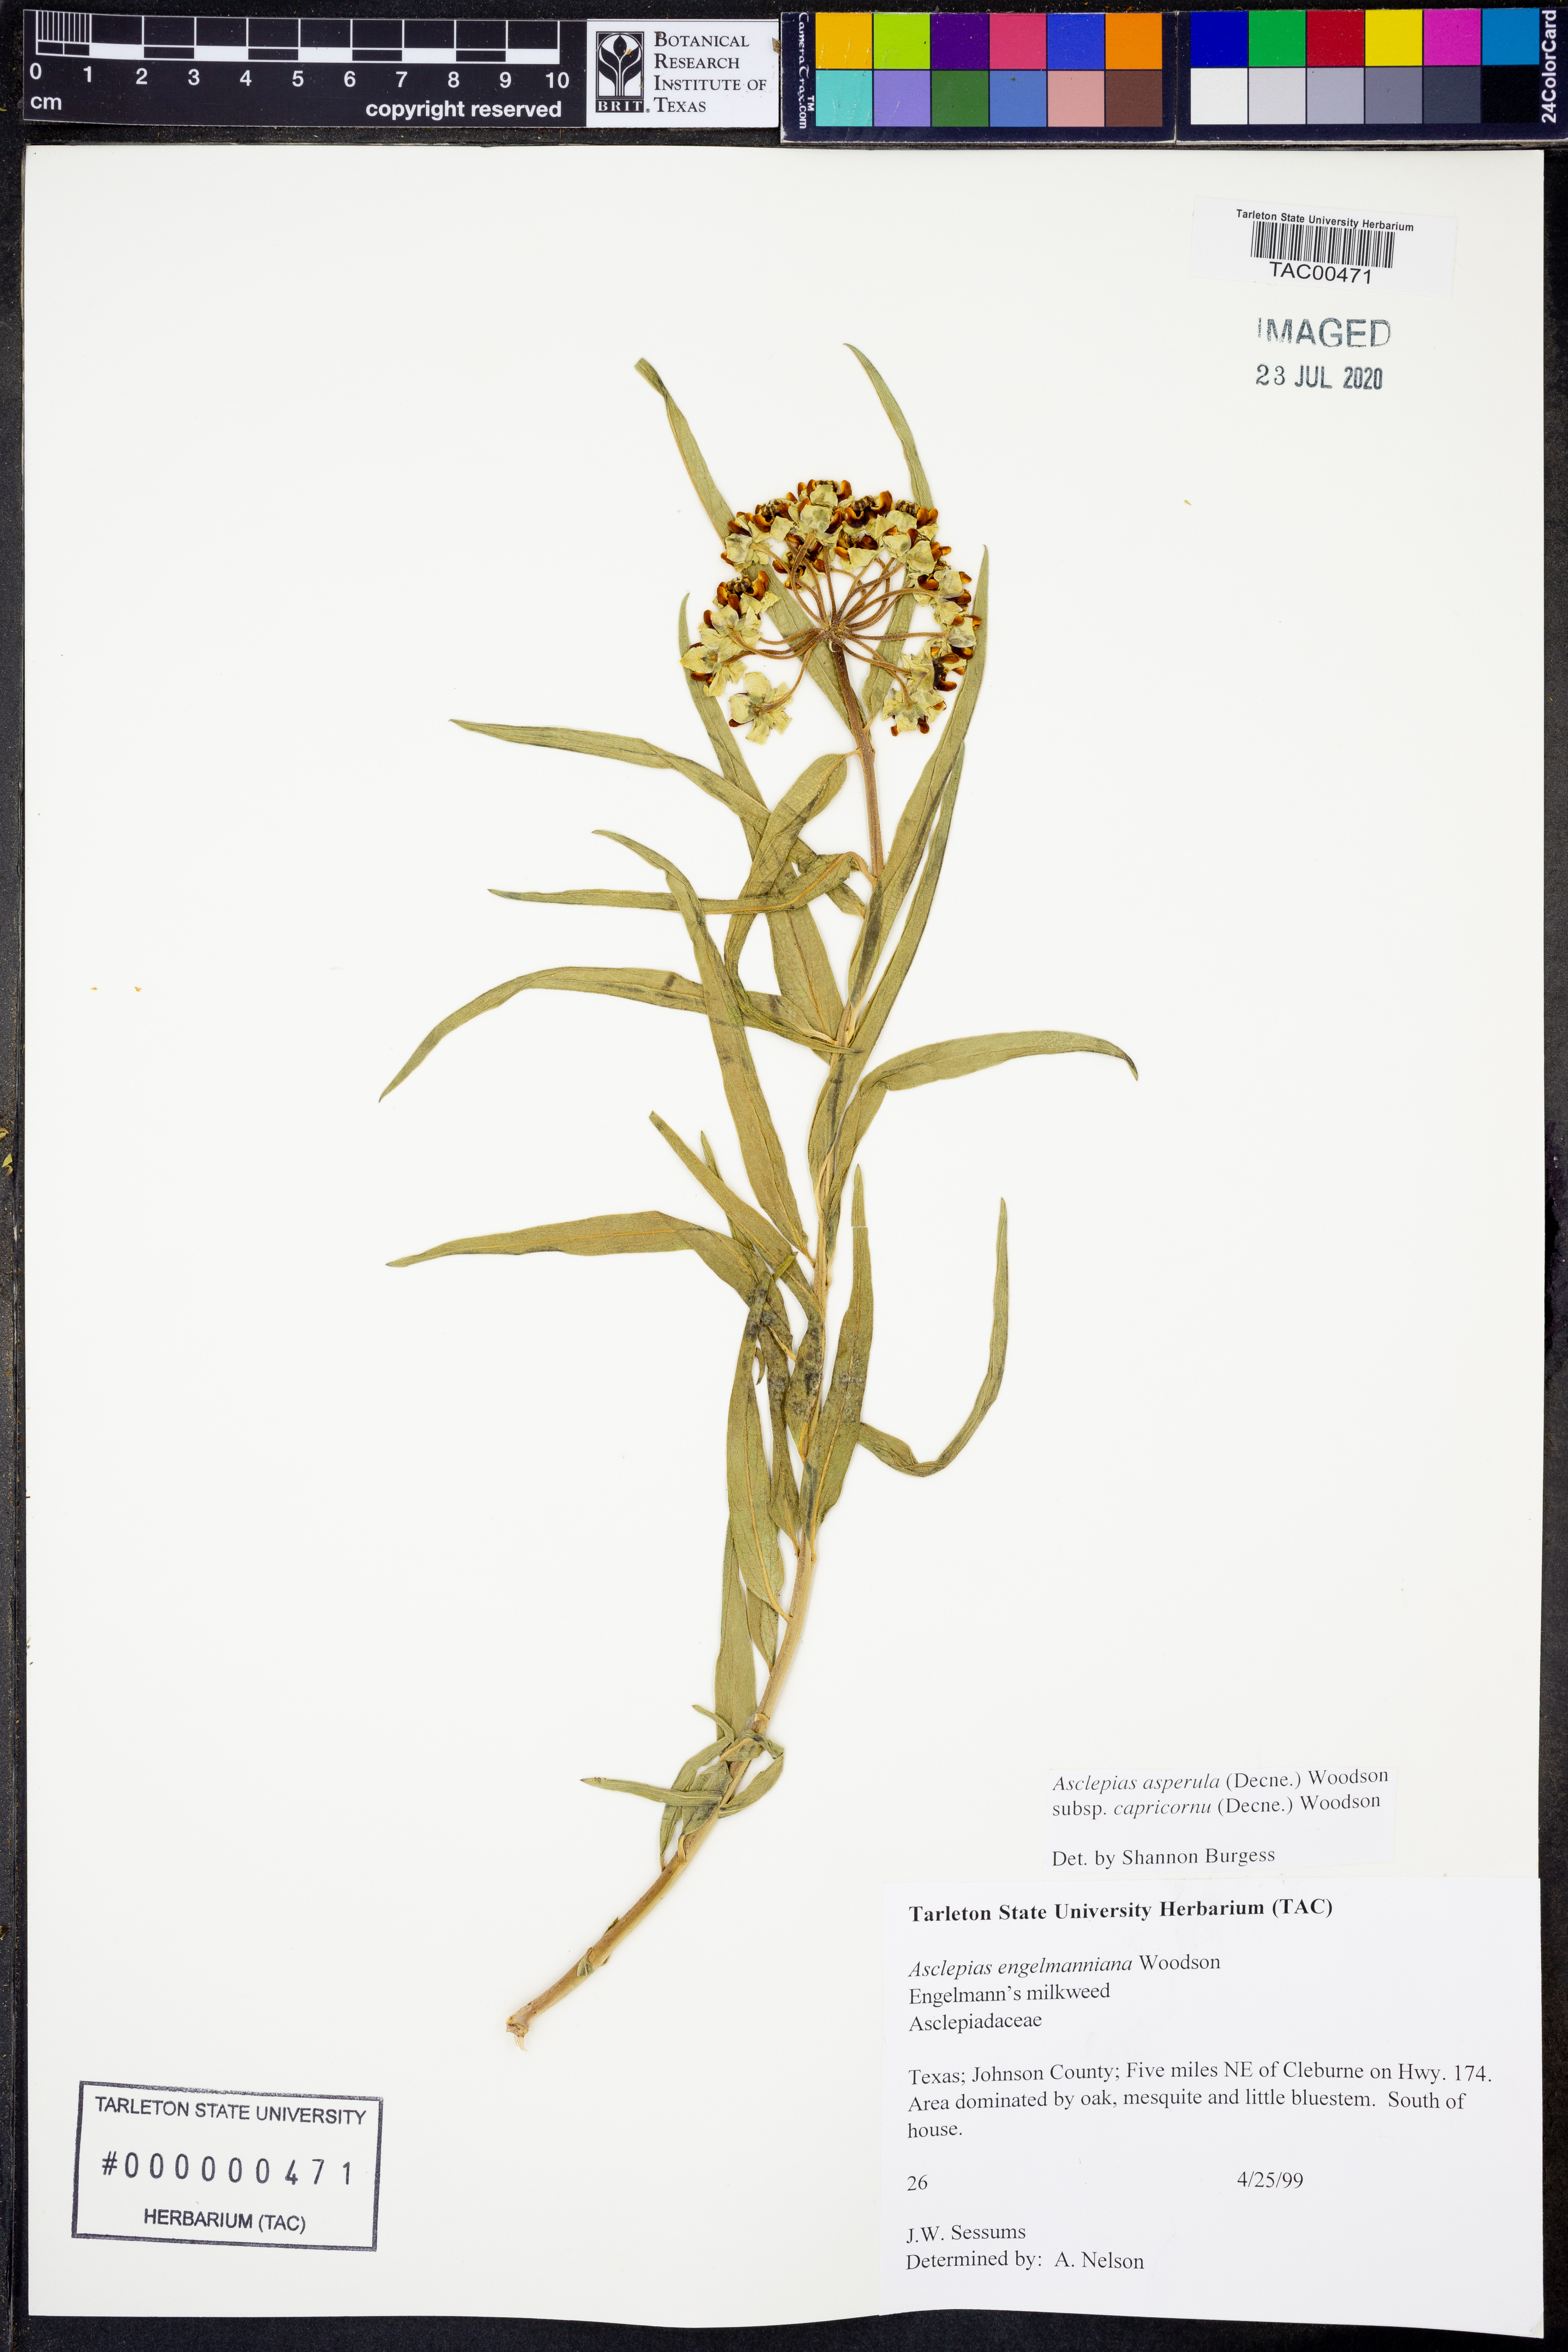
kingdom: Plantae
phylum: Tracheophyta
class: Magnoliopsida
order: Gentianales
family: Apocynaceae
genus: Asclepias
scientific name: Asclepias asperula
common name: Antelope horns
